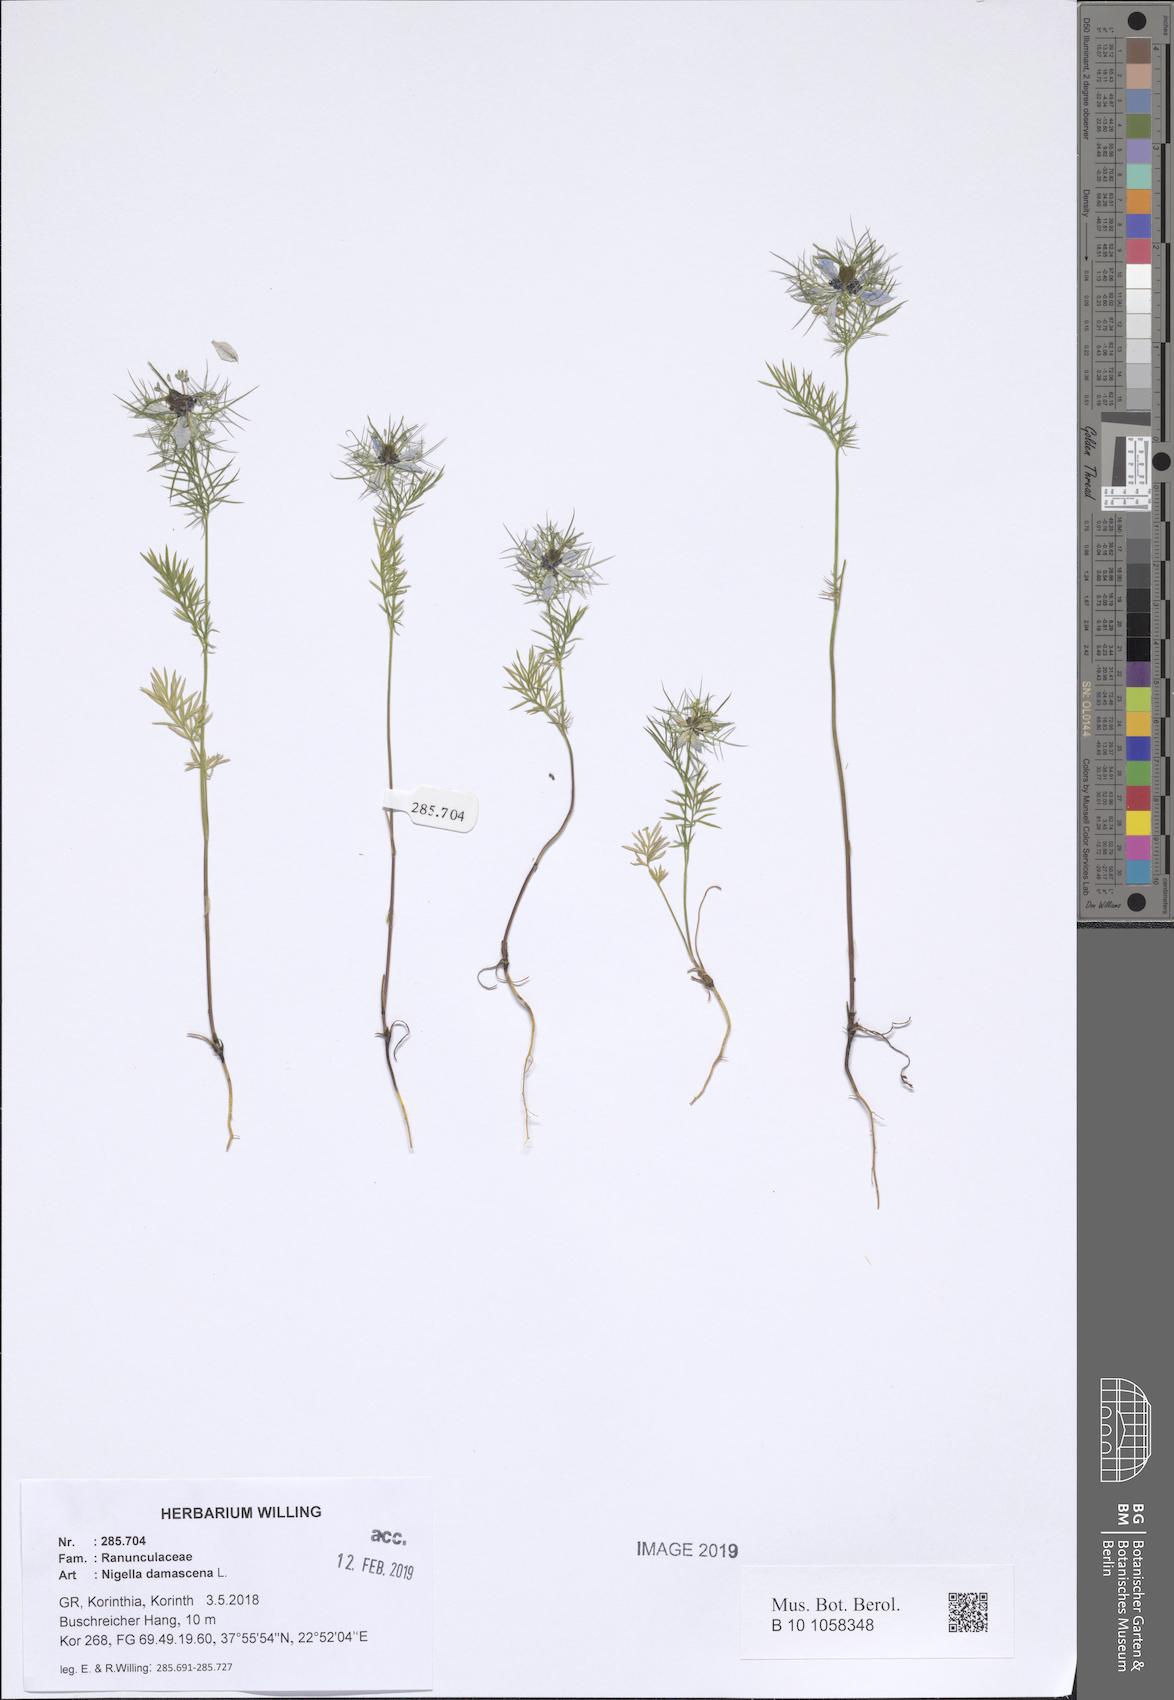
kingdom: Plantae
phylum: Tracheophyta
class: Magnoliopsida
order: Ranunculales
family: Ranunculaceae
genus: Nigella
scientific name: Nigella damascena
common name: Love-in-a-mist
